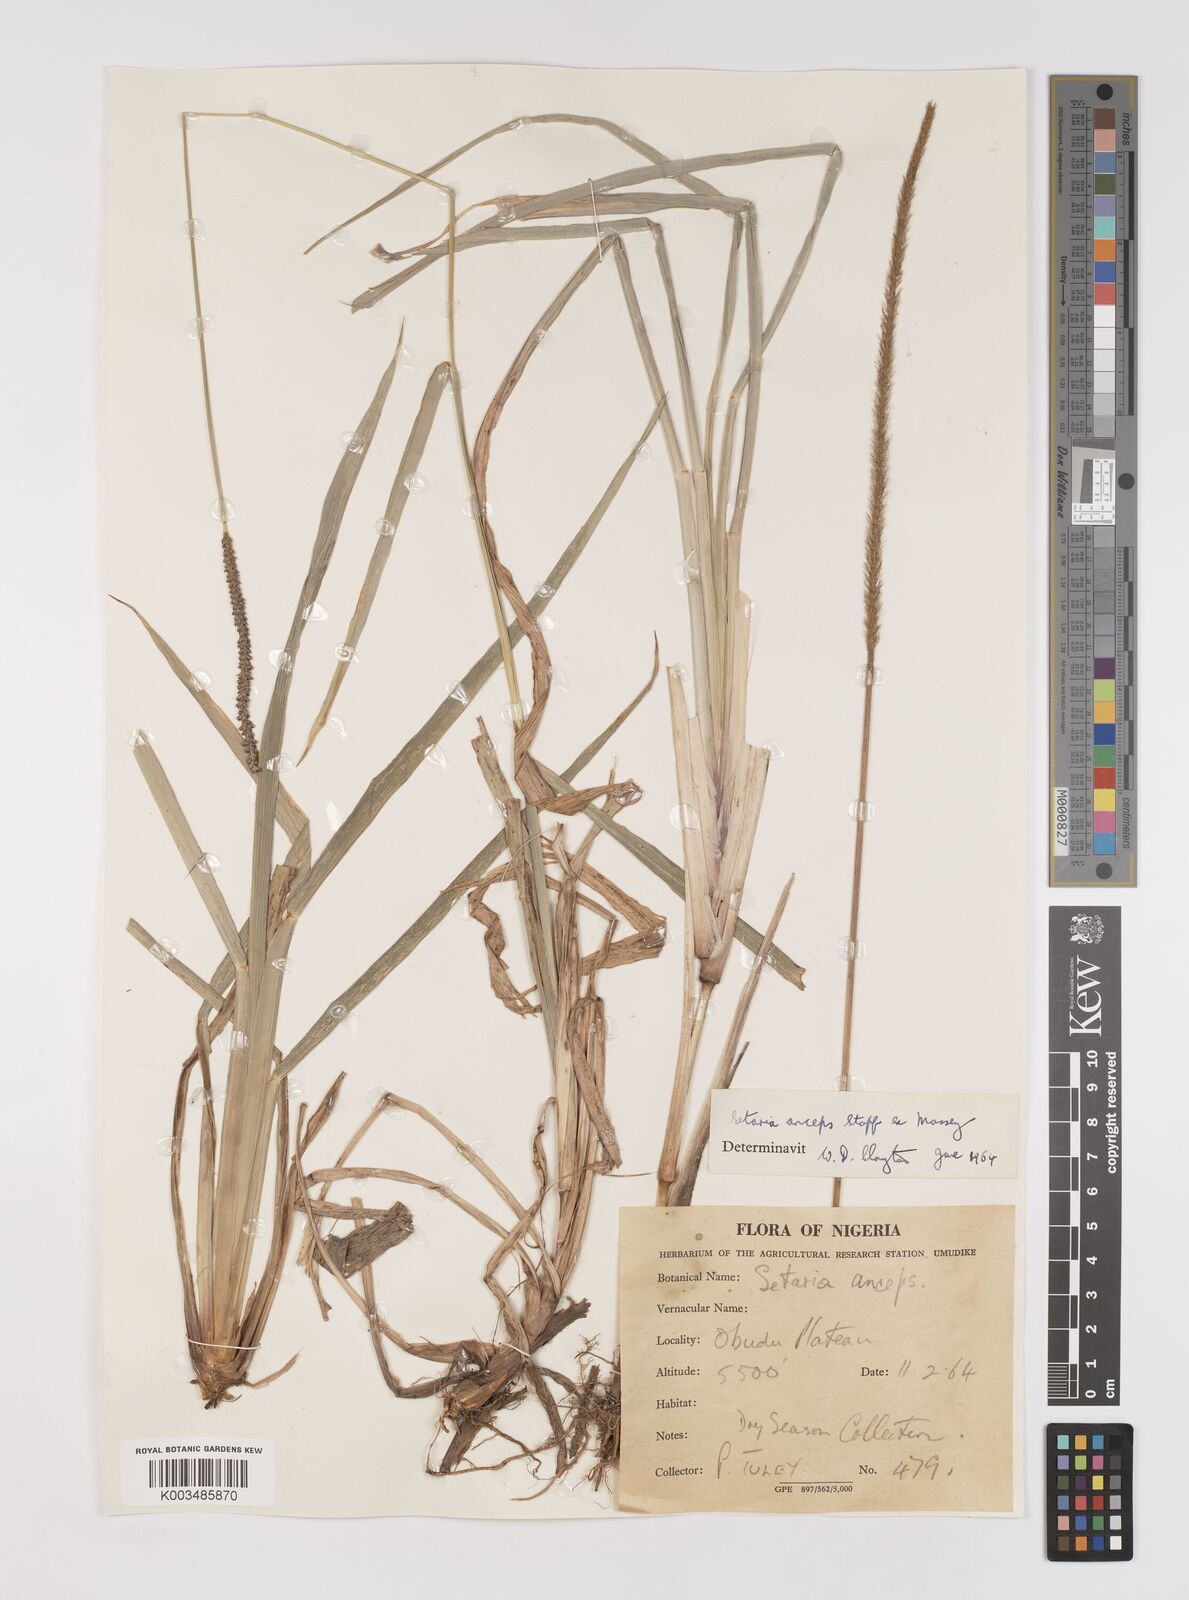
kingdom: Plantae
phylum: Tracheophyta
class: Liliopsida
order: Poales
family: Poaceae
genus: Setaria
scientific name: Setaria sphacelata
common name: African bristlegrass
